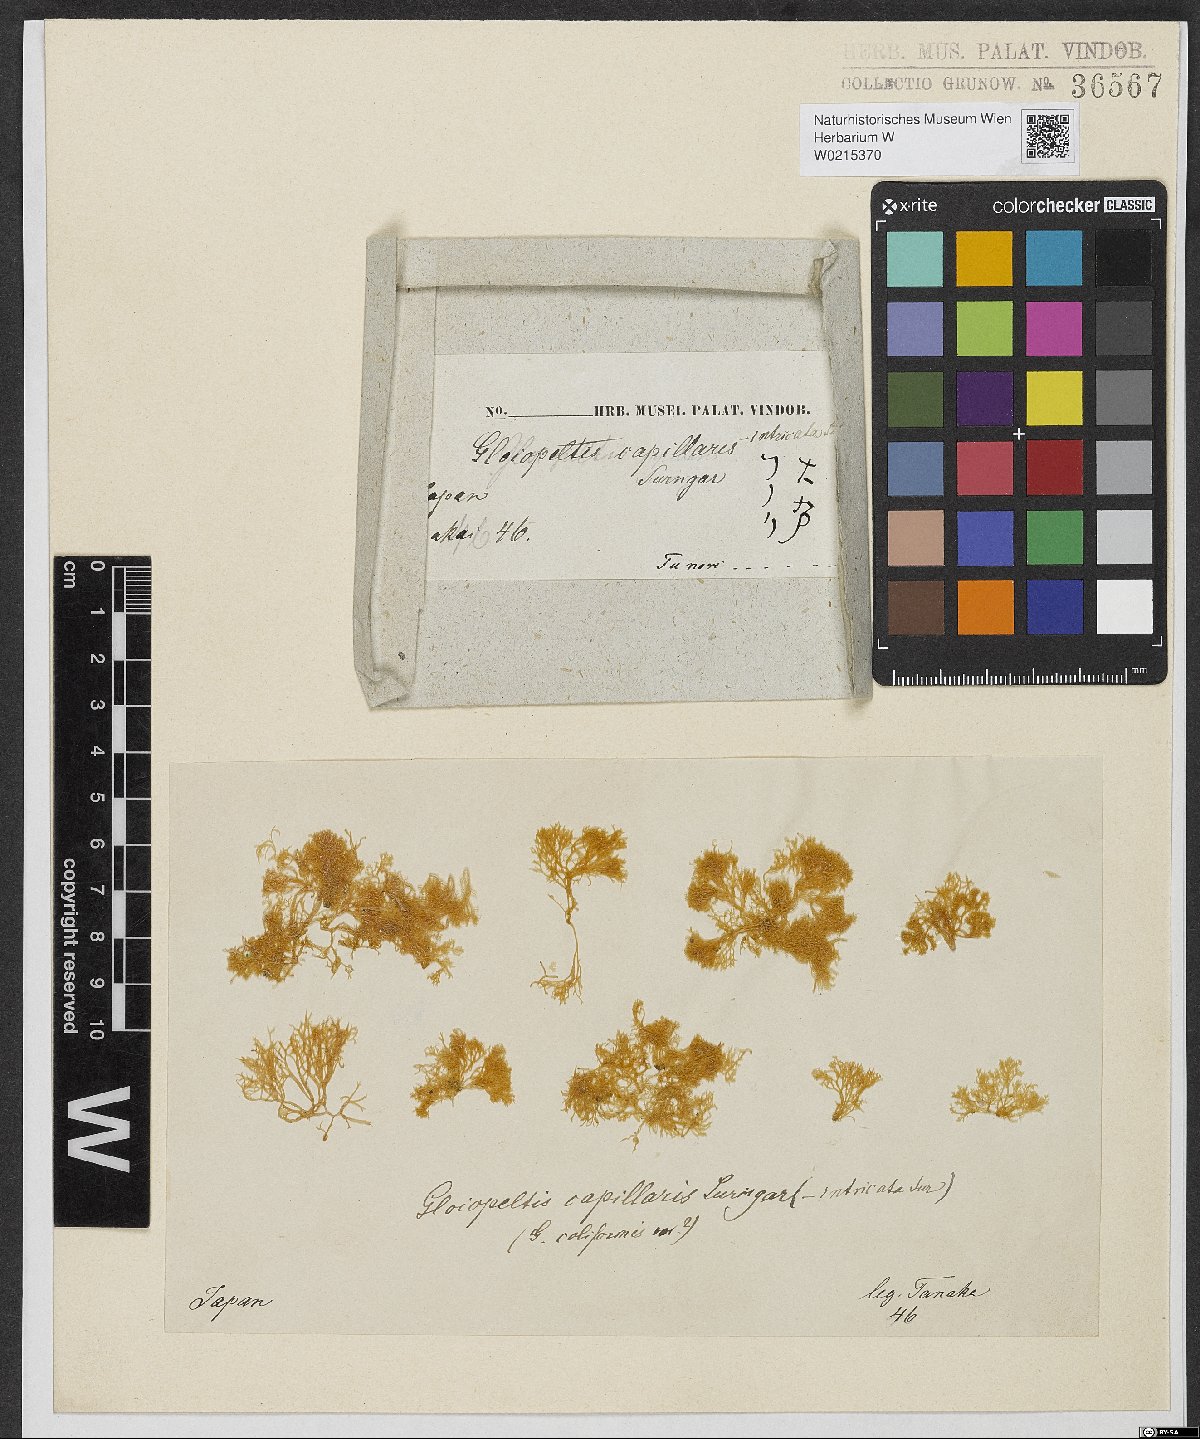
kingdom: Plantae
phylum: Rhodophyta
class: Florideophyceae
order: Gigartinales
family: Endocladiaceae
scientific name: Endocladiaceae
